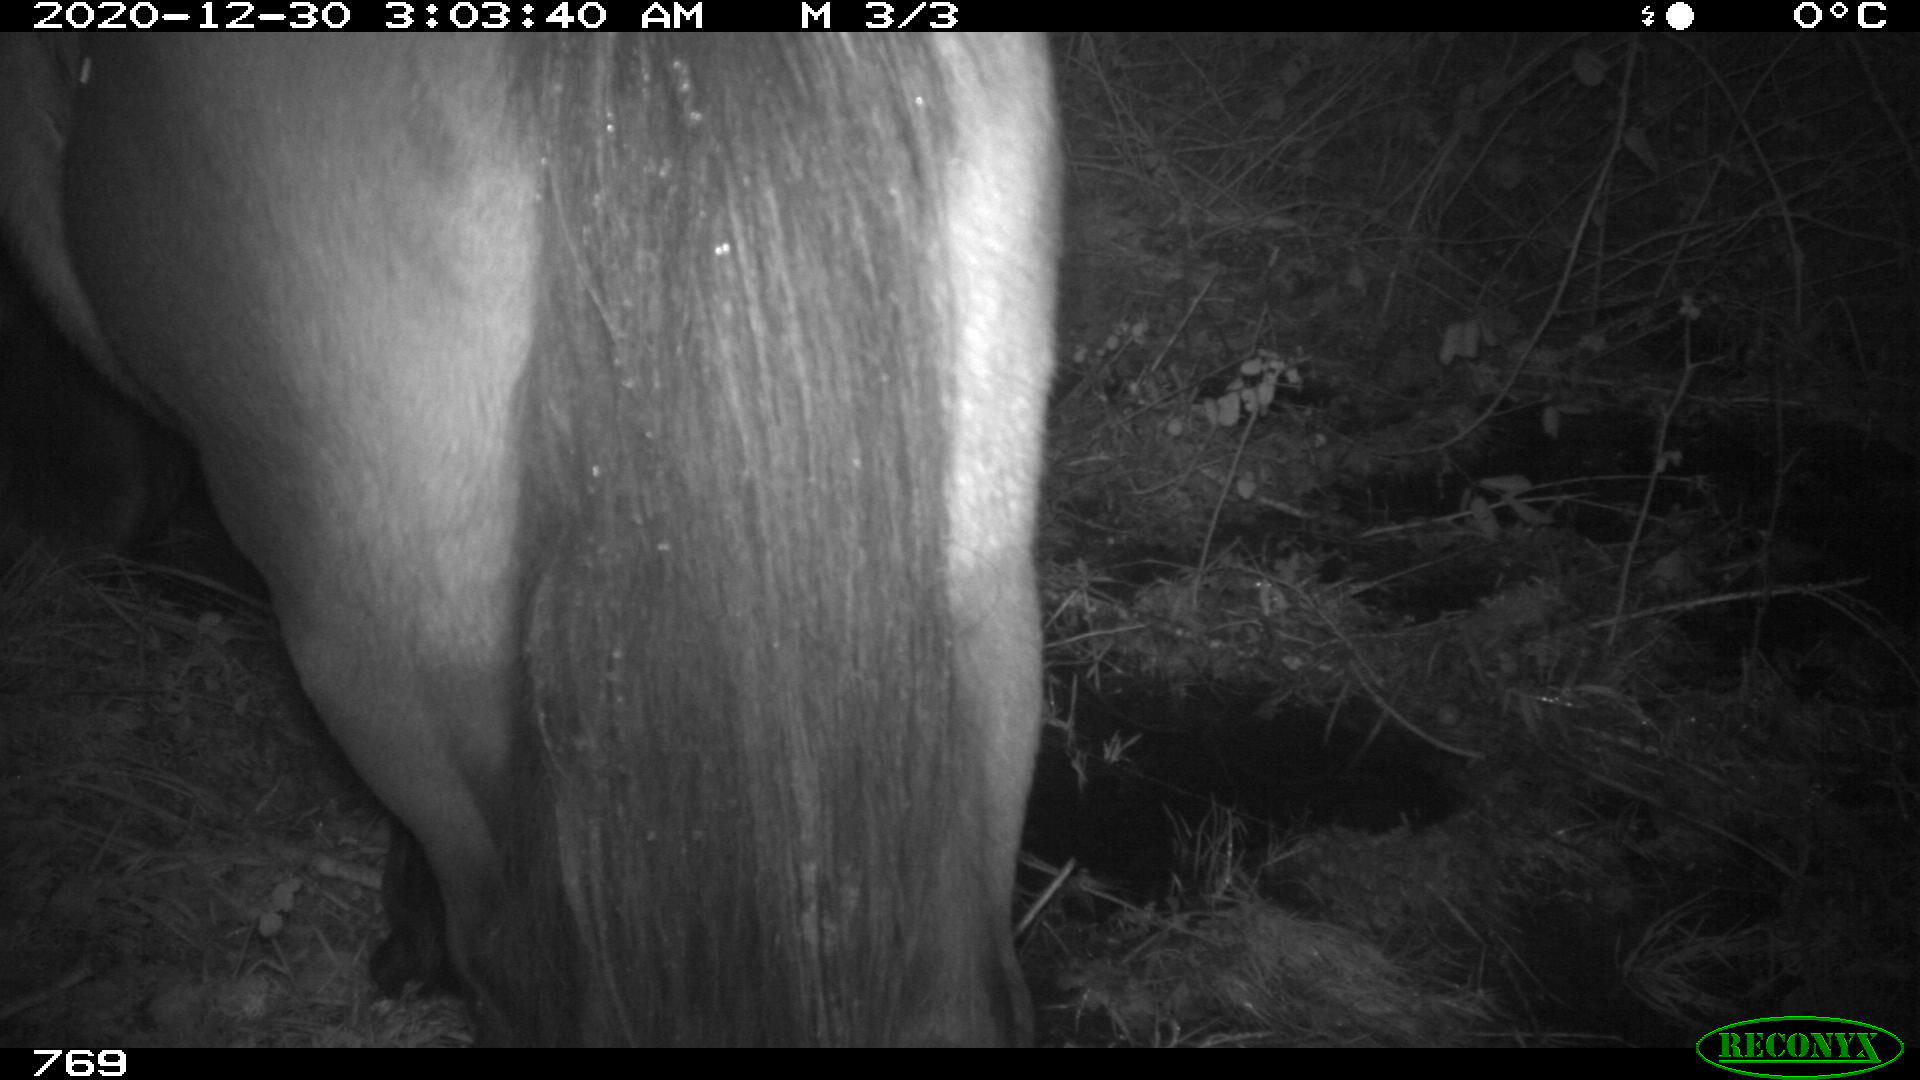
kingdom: Animalia
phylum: Chordata
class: Mammalia
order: Perissodactyla
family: Equidae
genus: Equus
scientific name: Equus caballus
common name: Horse
